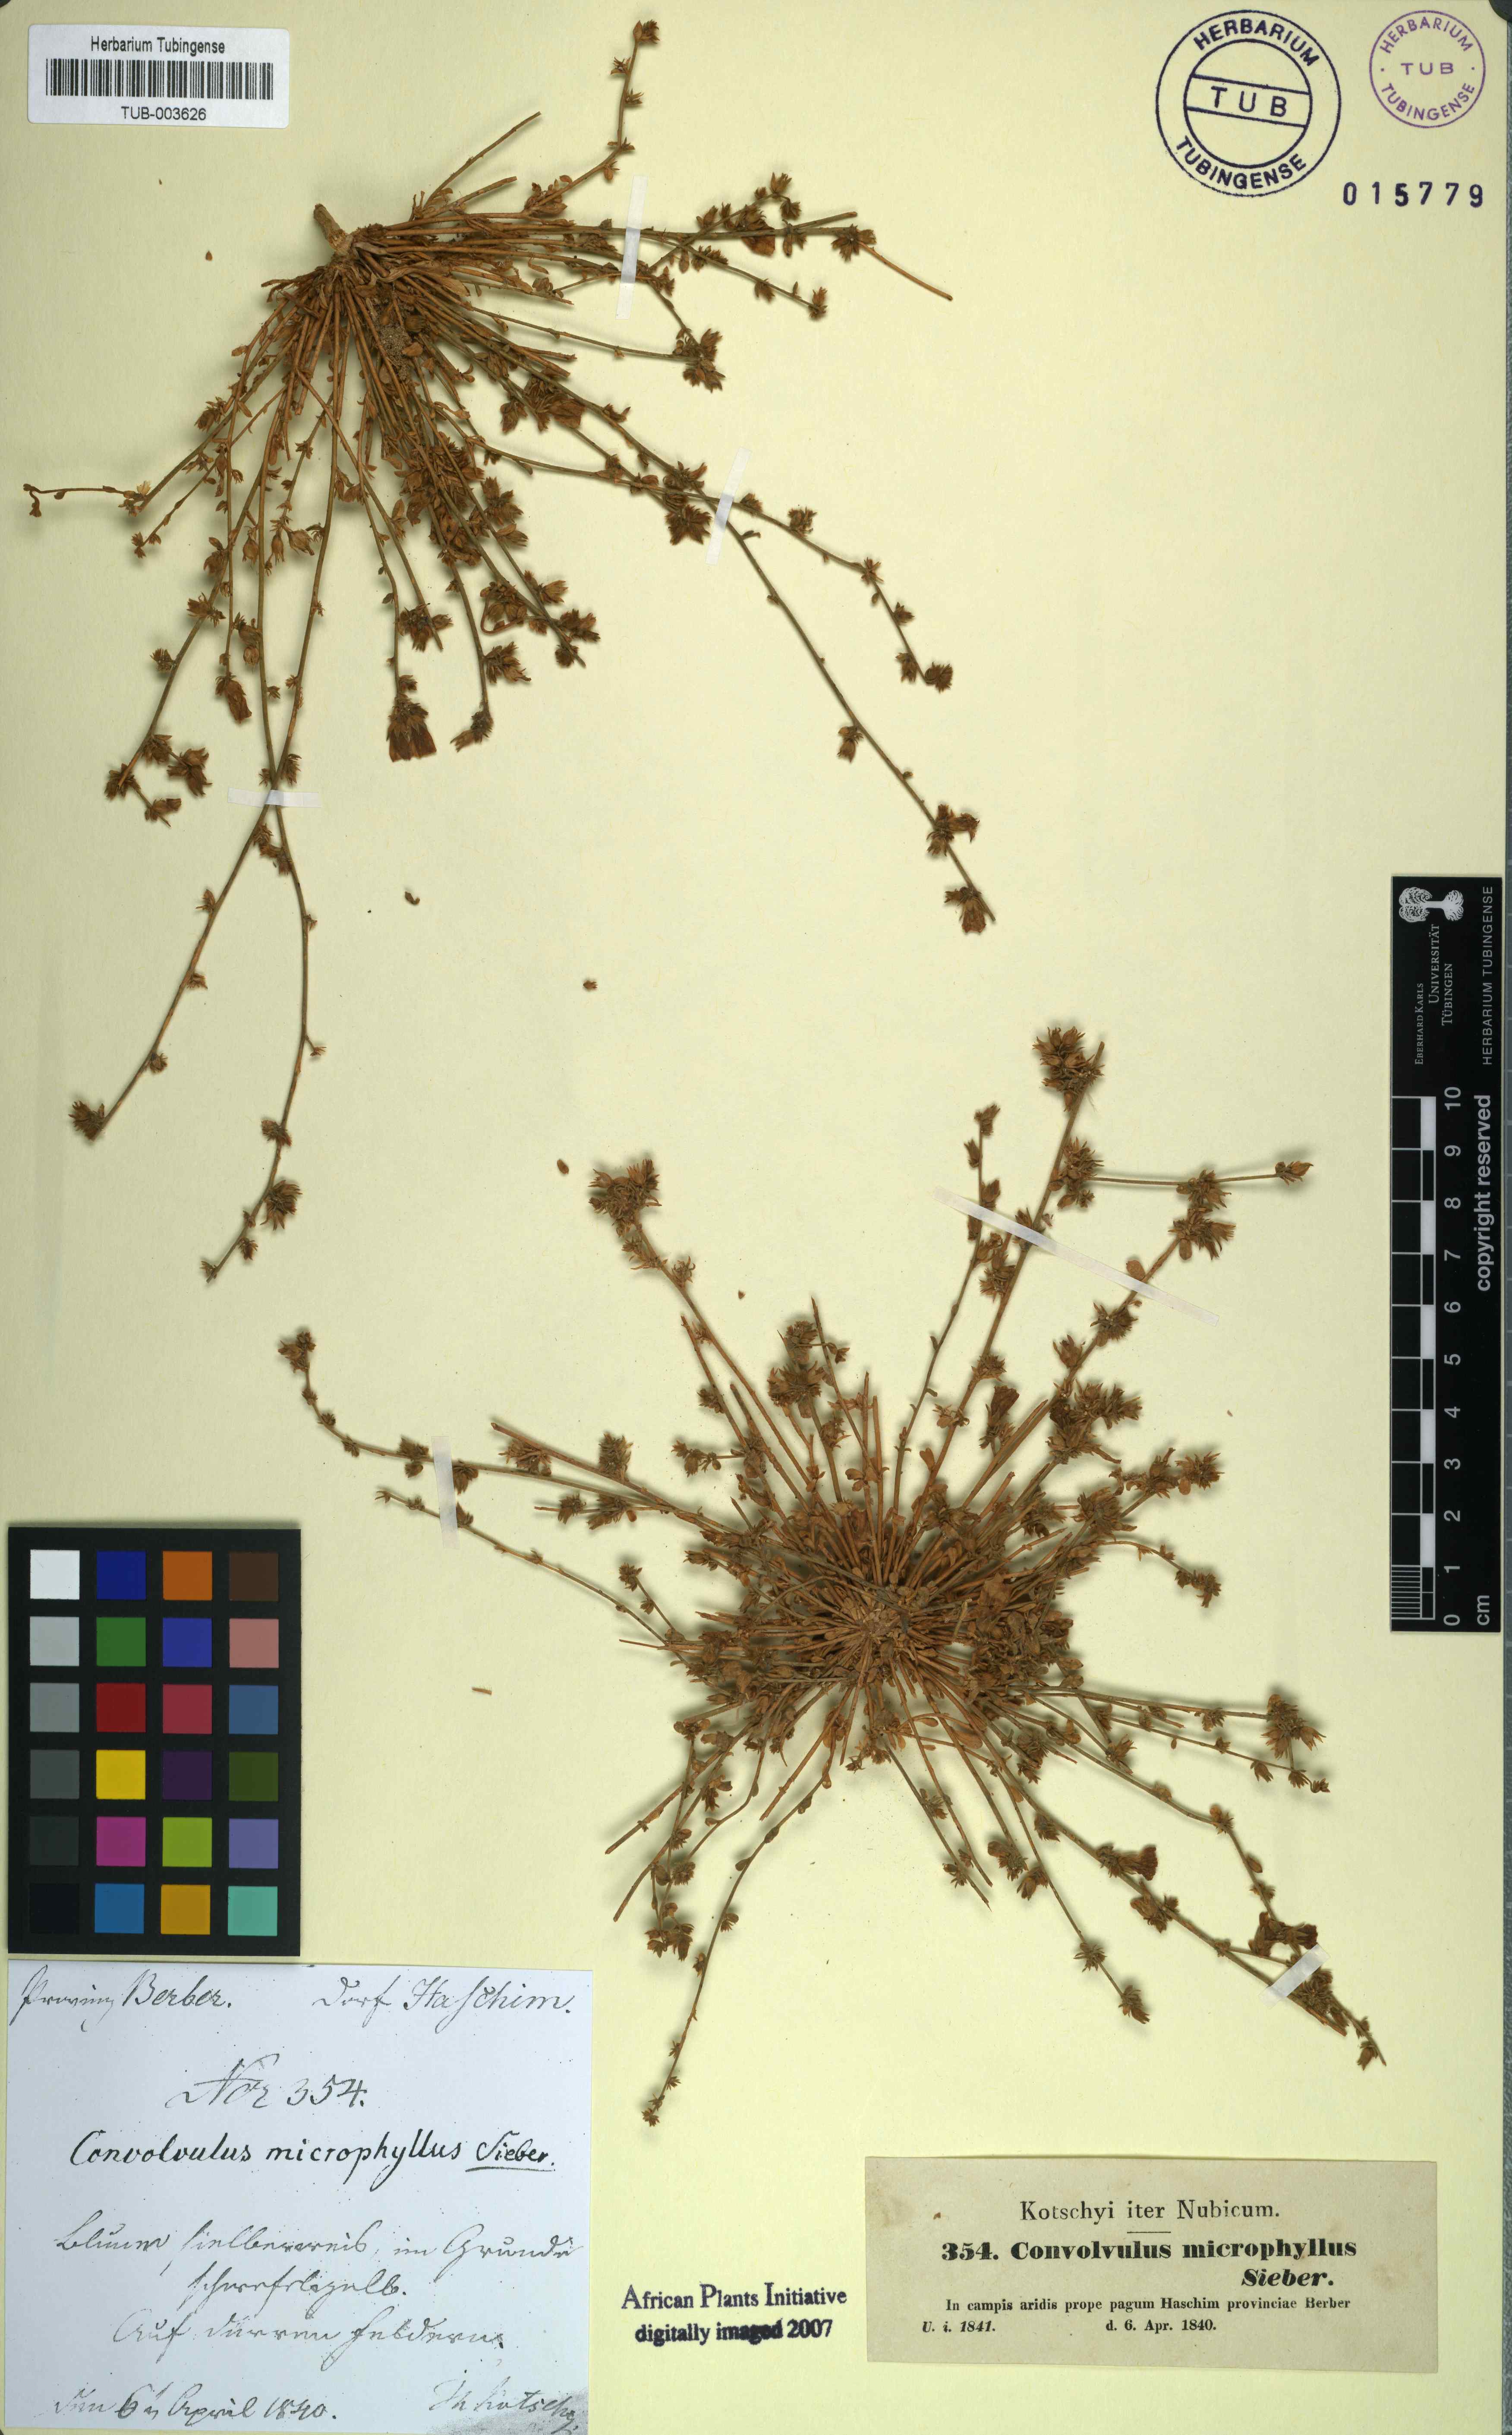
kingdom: Plantae
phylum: Tracheophyta
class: Magnoliopsida
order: Solanales
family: Convolvulaceae
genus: Convolvulus
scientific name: Convolvulus prostratus
